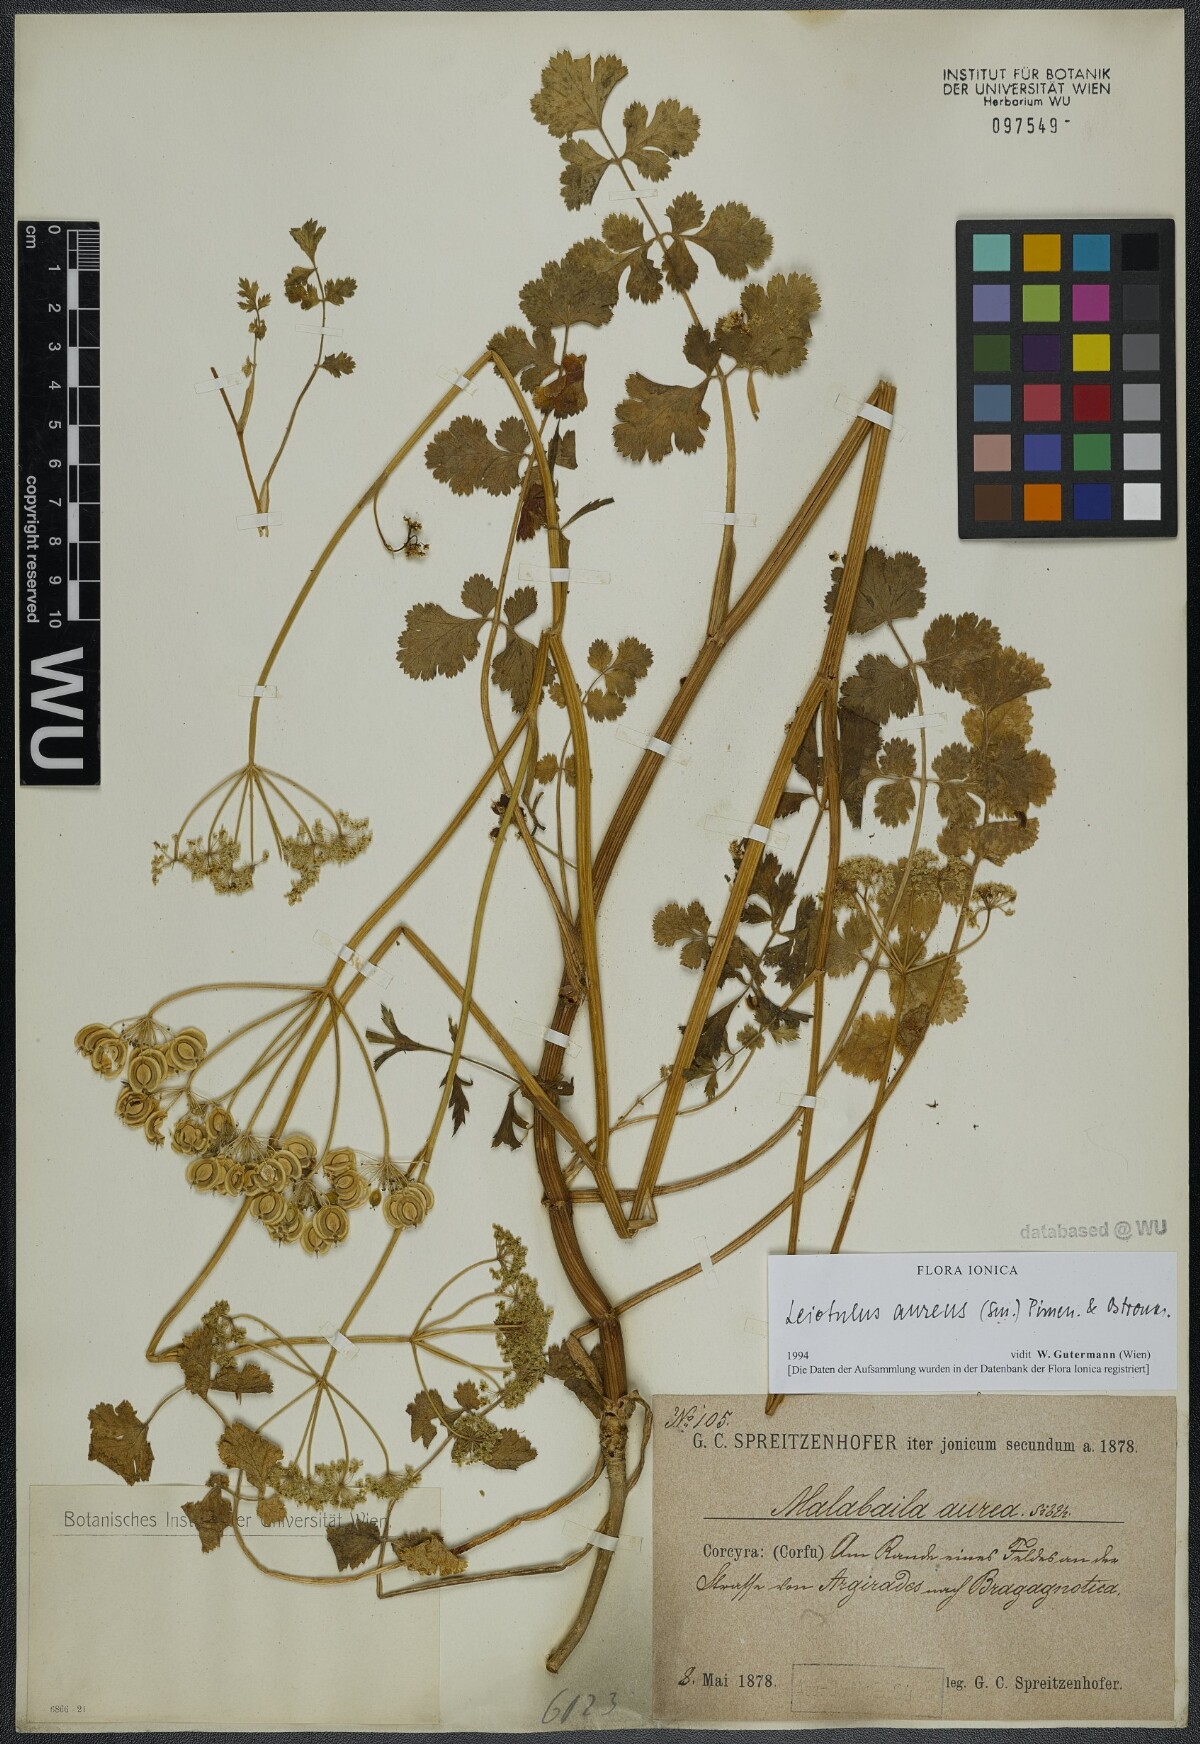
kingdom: Plantae
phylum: Tracheophyta
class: Magnoliopsida
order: Apiales
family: Apiaceae
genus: Leiotulus
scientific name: Leiotulus aureus
